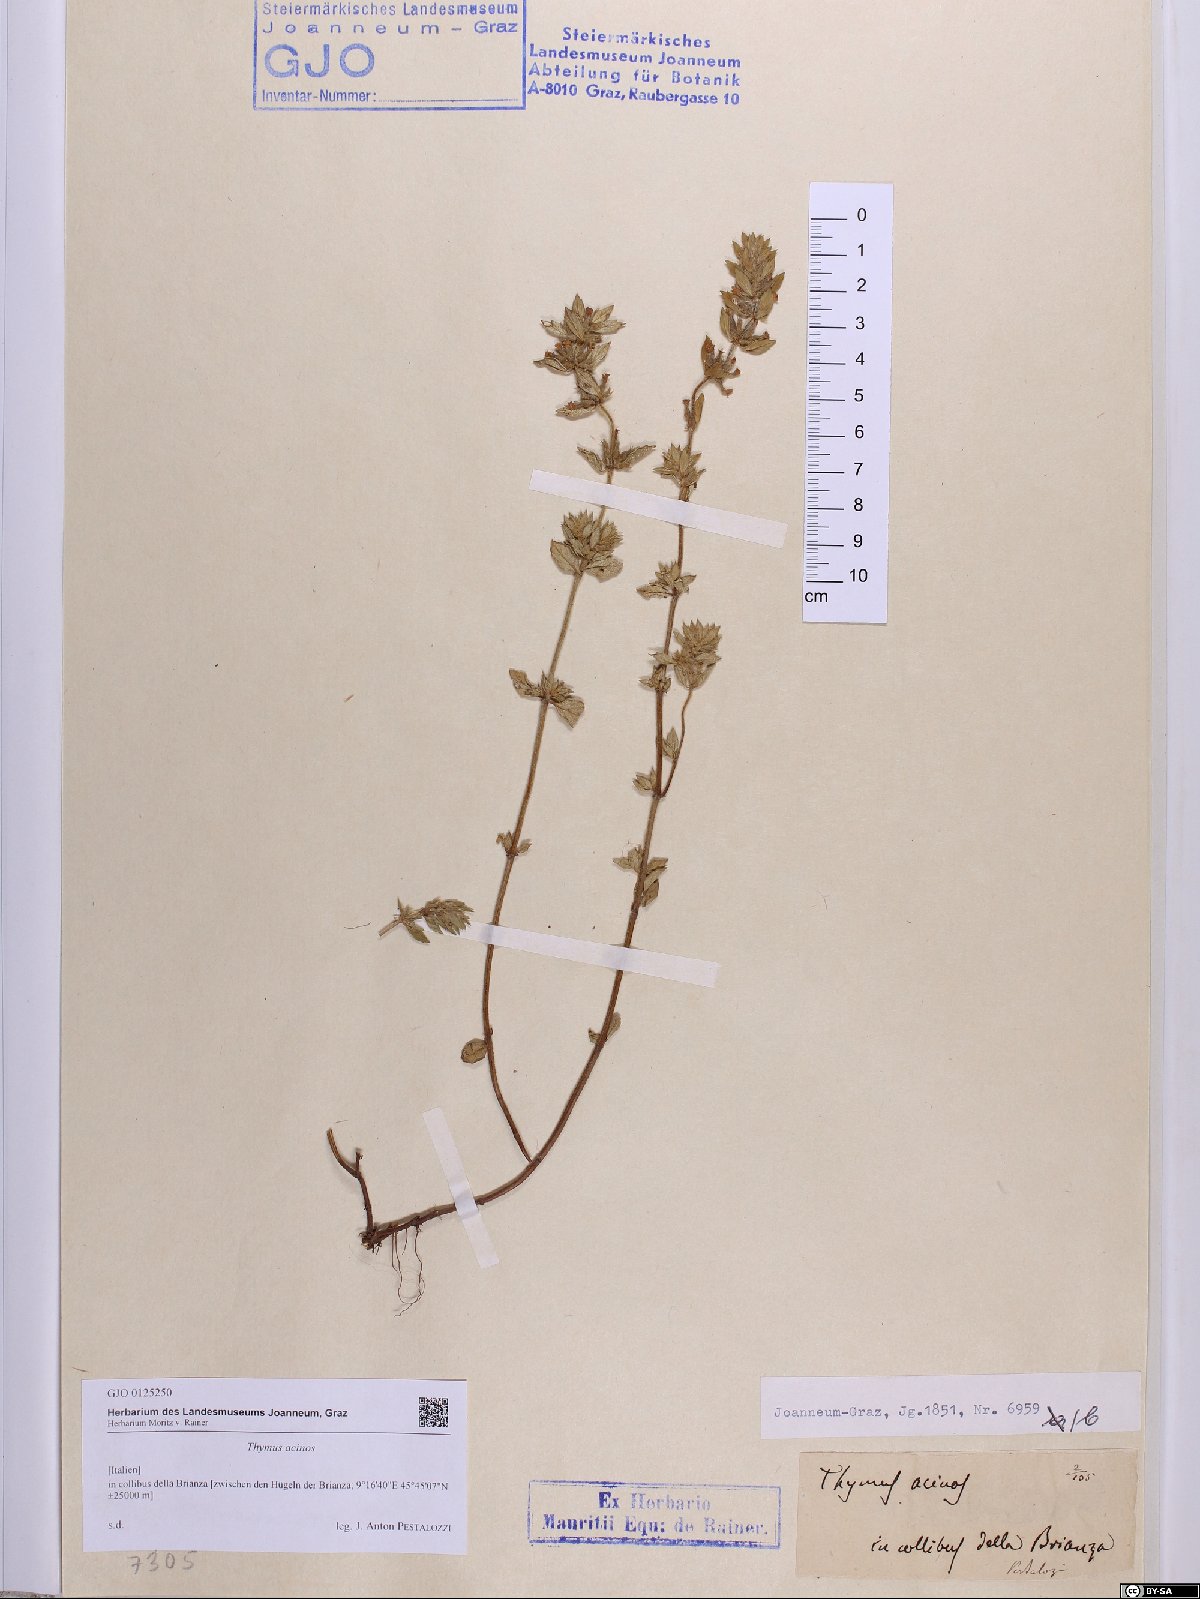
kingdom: Plantae
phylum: Tracheophyta
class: Magnoliopsida
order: Lamiales
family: Lamiaceae
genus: Clinopodium
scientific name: Clinopodium acinos
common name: Basil thyme
